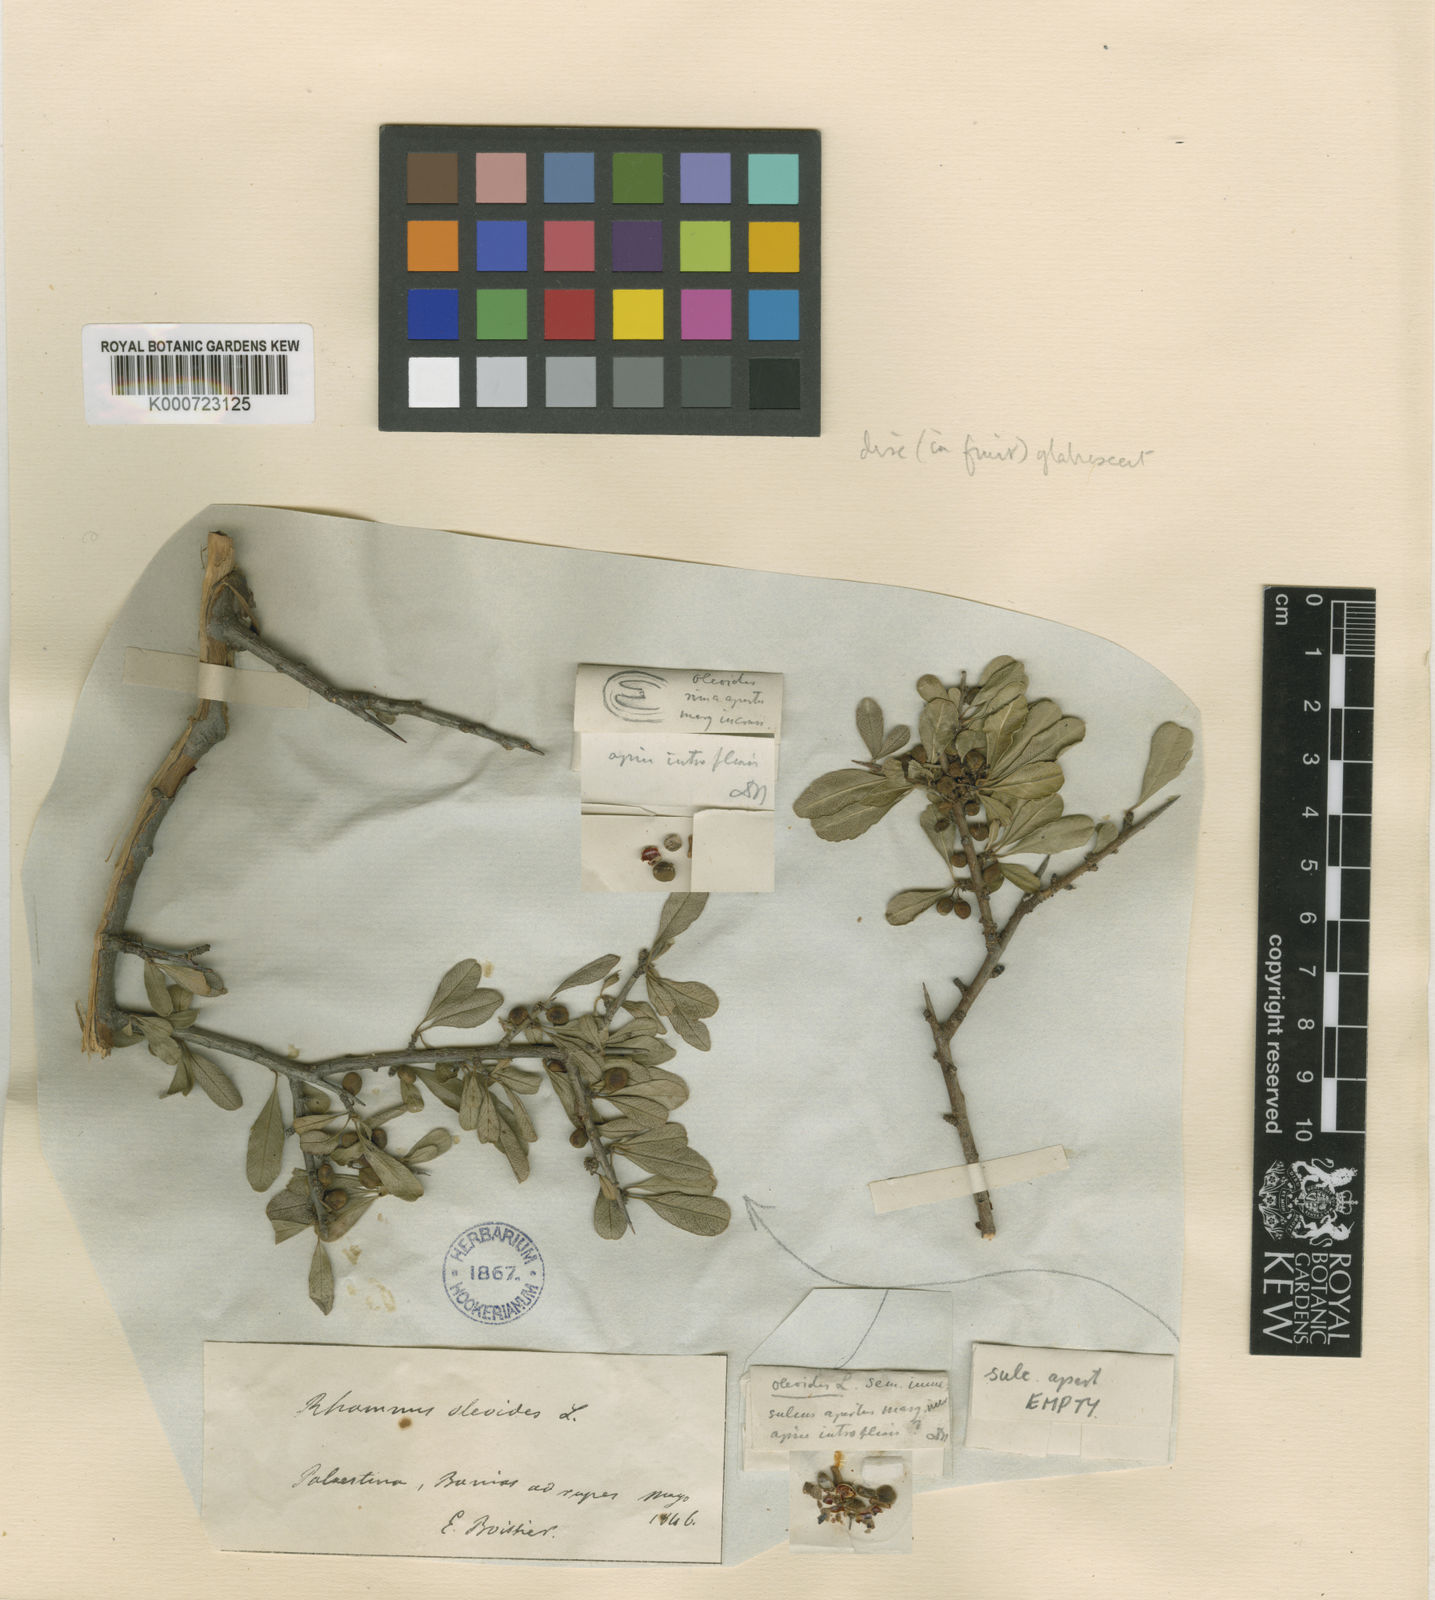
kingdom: Plantae
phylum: Tracheophyta
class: Magnoliopsida
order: Rosales
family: Rhamnaceae
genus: Rhamnus
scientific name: Rhamnus lycioides
